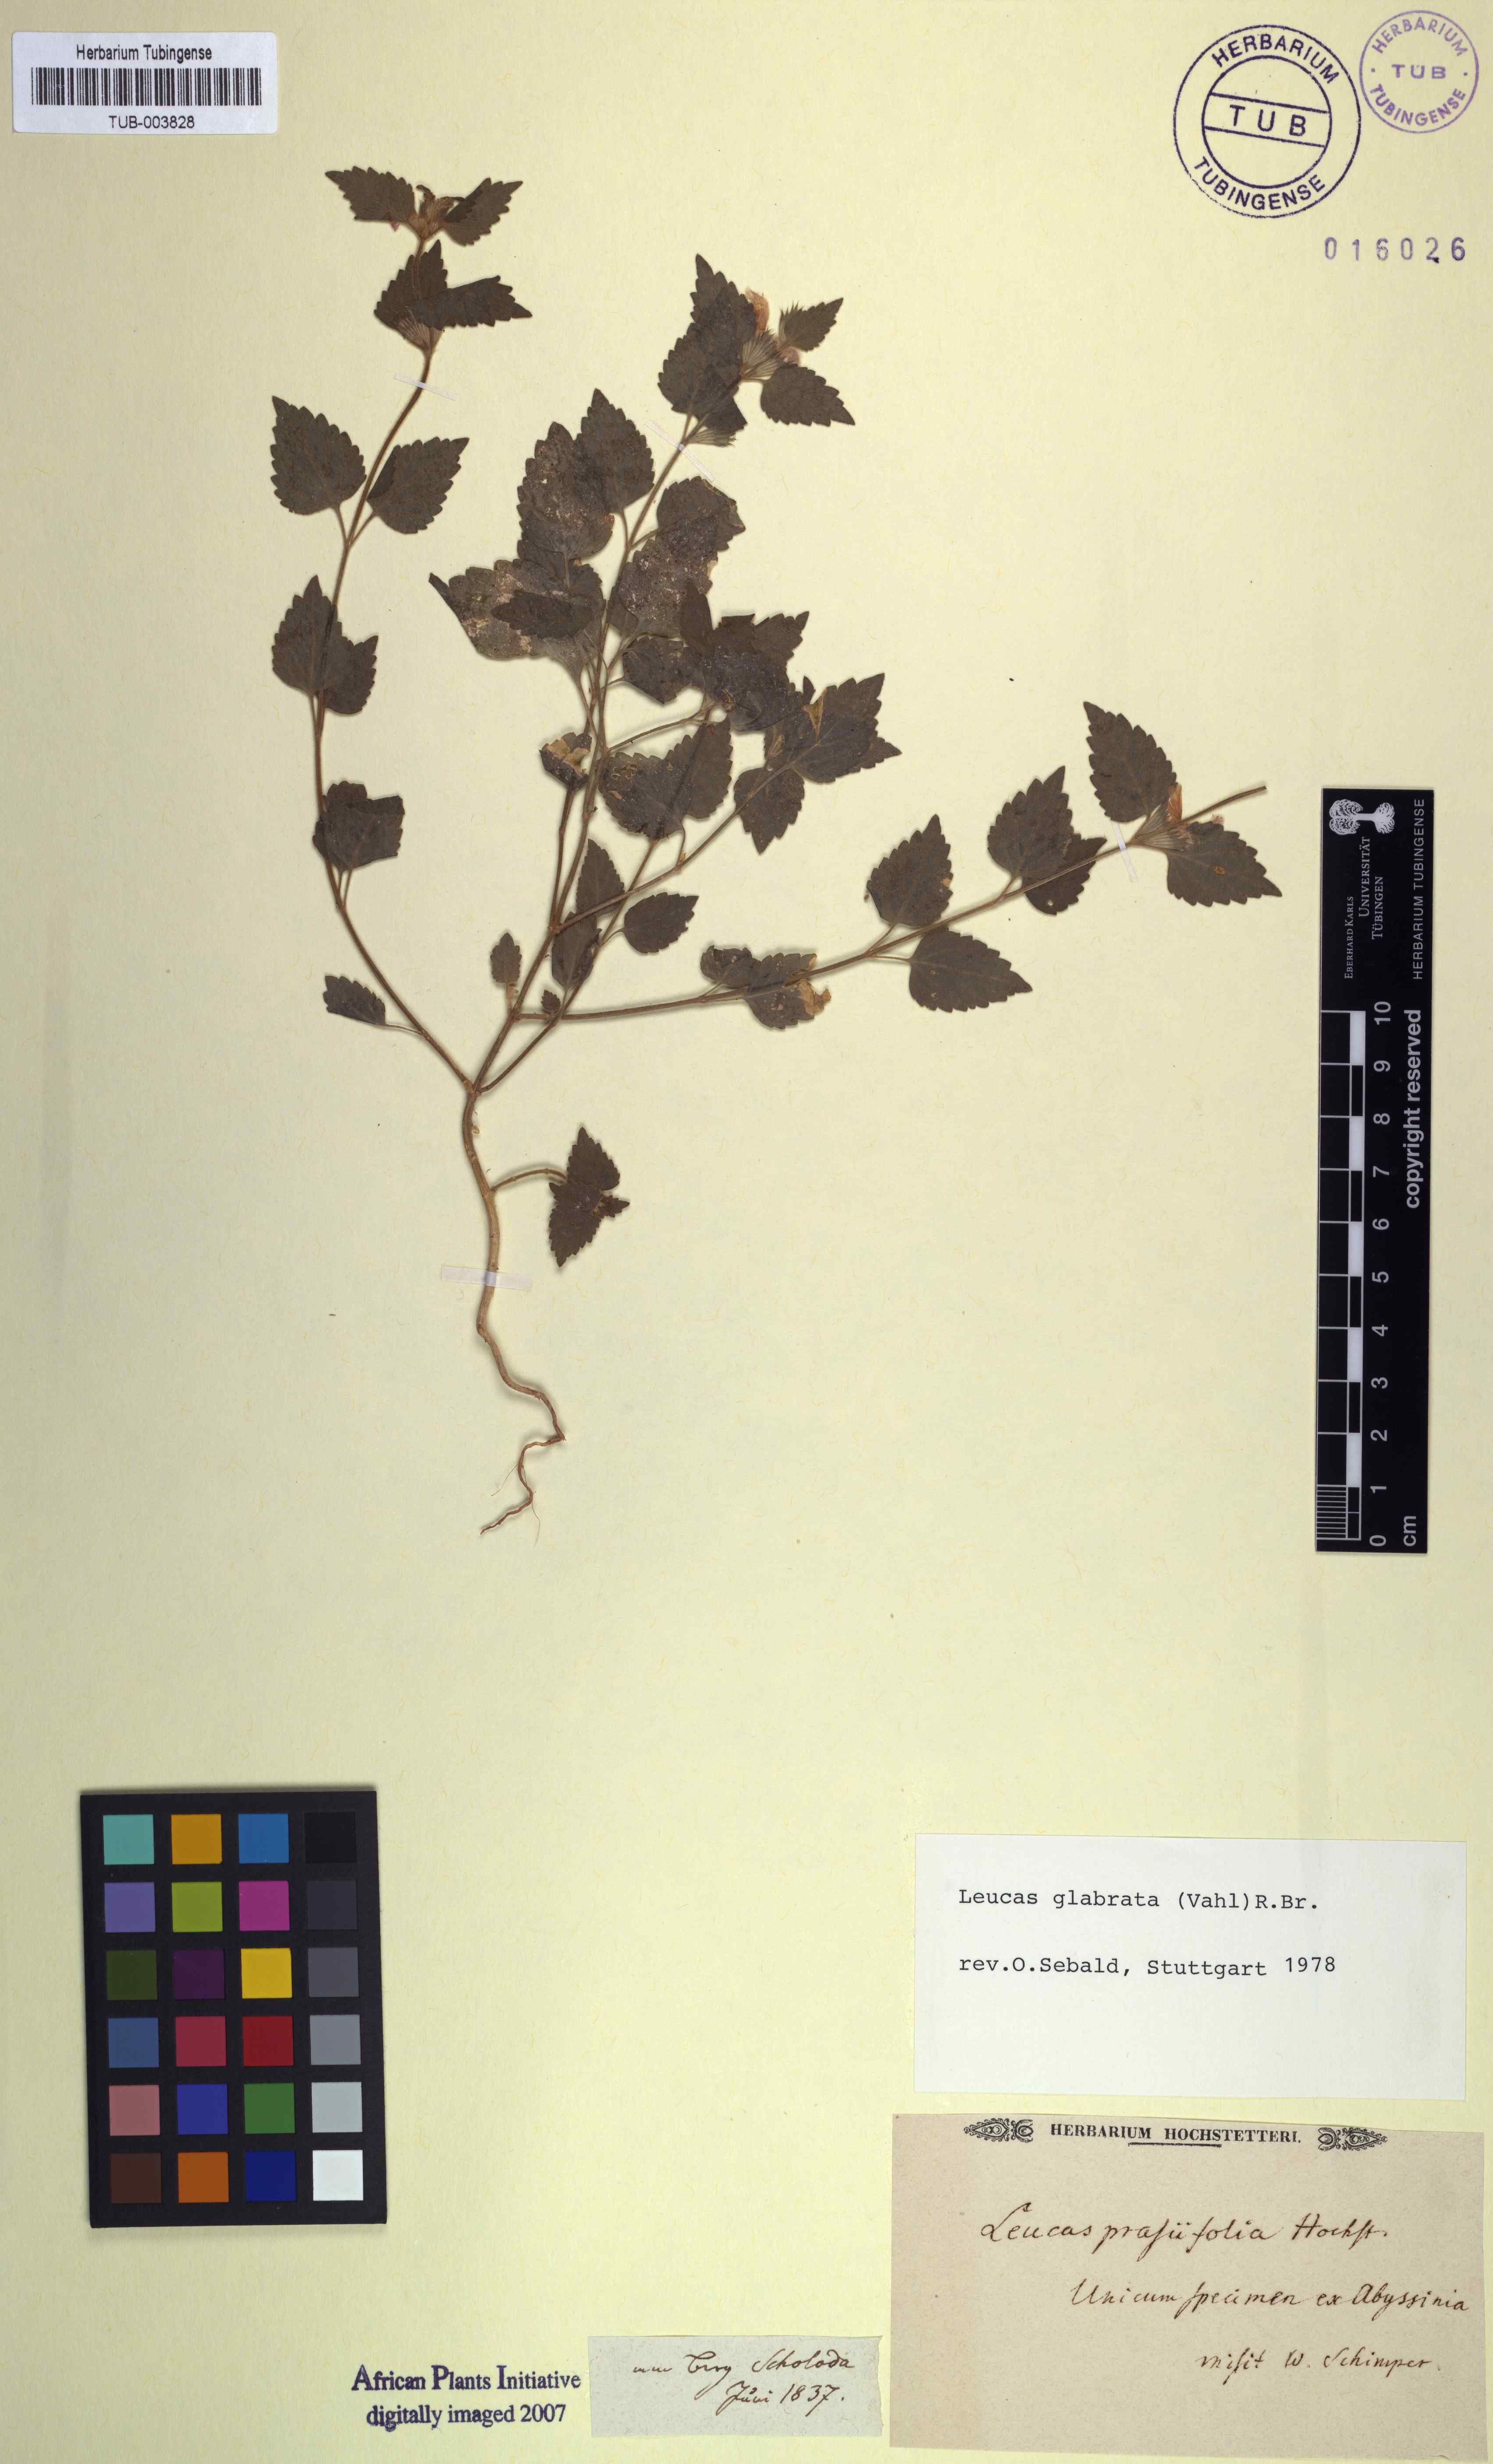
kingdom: Plantae
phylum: Tracheophyta
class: Magnoliopsida
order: Lamiales
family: Lamiaceae
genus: Leucas
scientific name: Leucas glabrata
